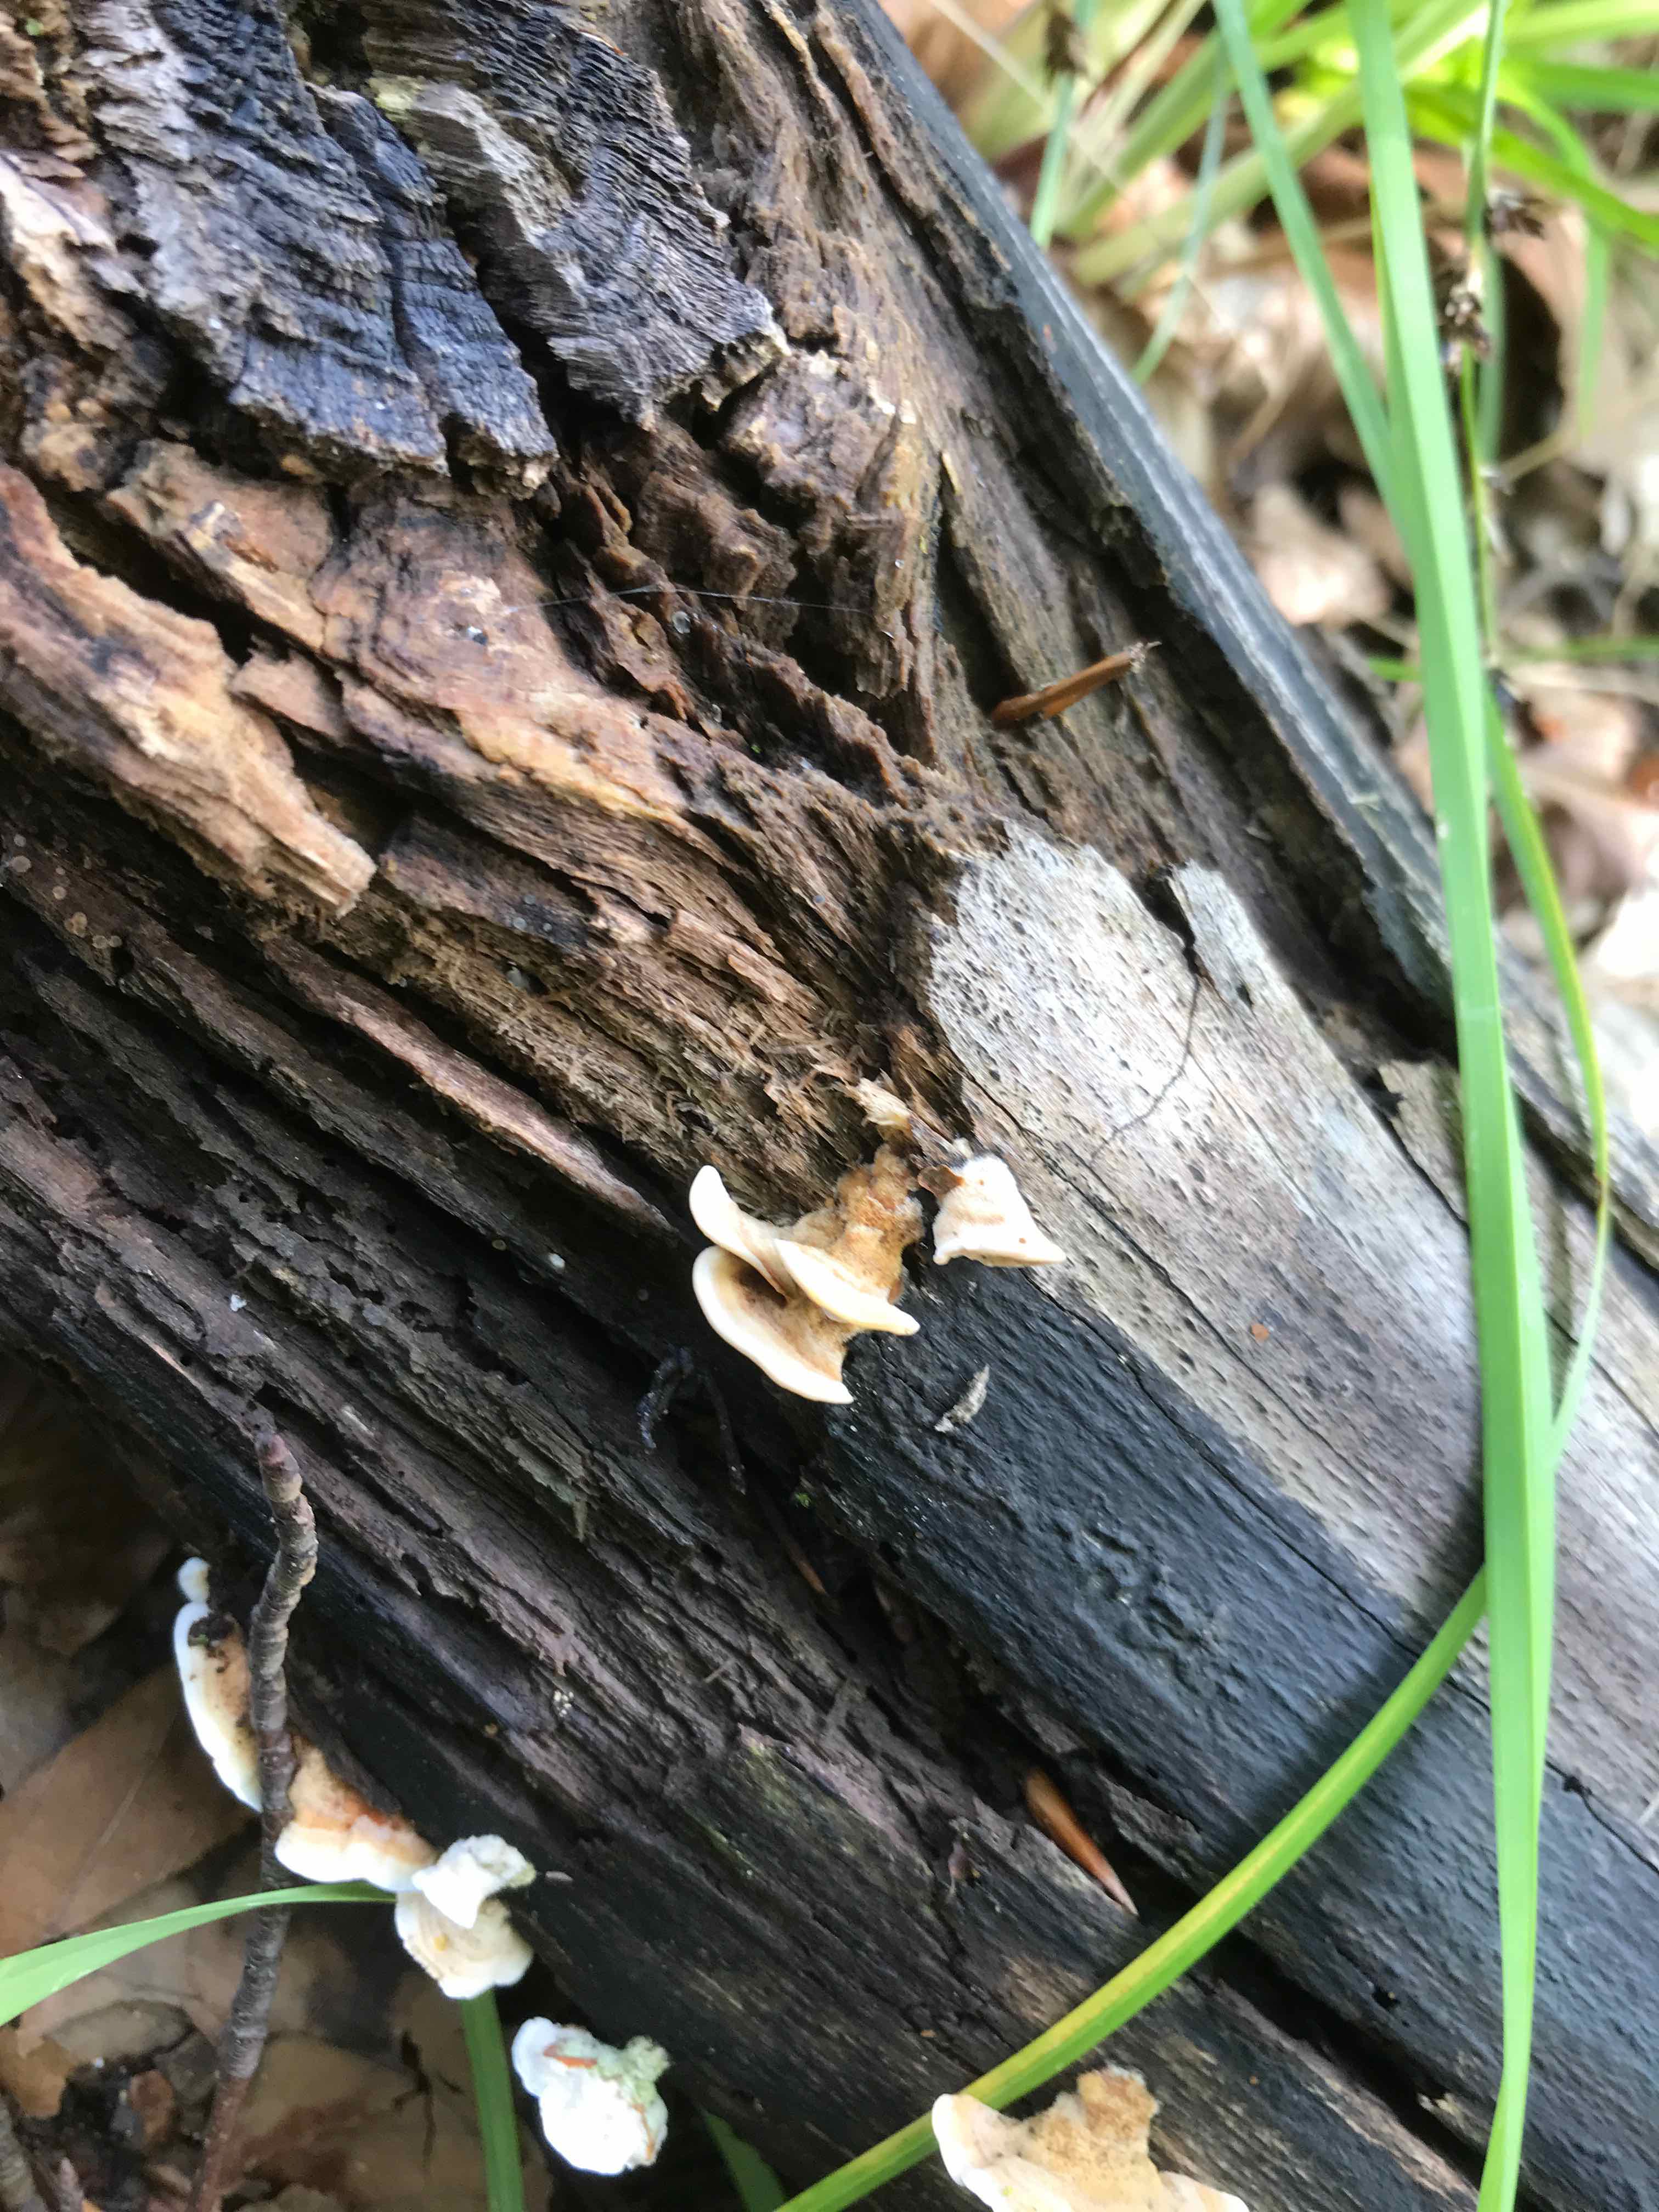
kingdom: Fungi
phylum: Basidiomycota
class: Agaricomycetes
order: Amylocorticiales
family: Amylocorticiaceae
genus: Plicaturopsis
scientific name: Plicaturopsis crispa
